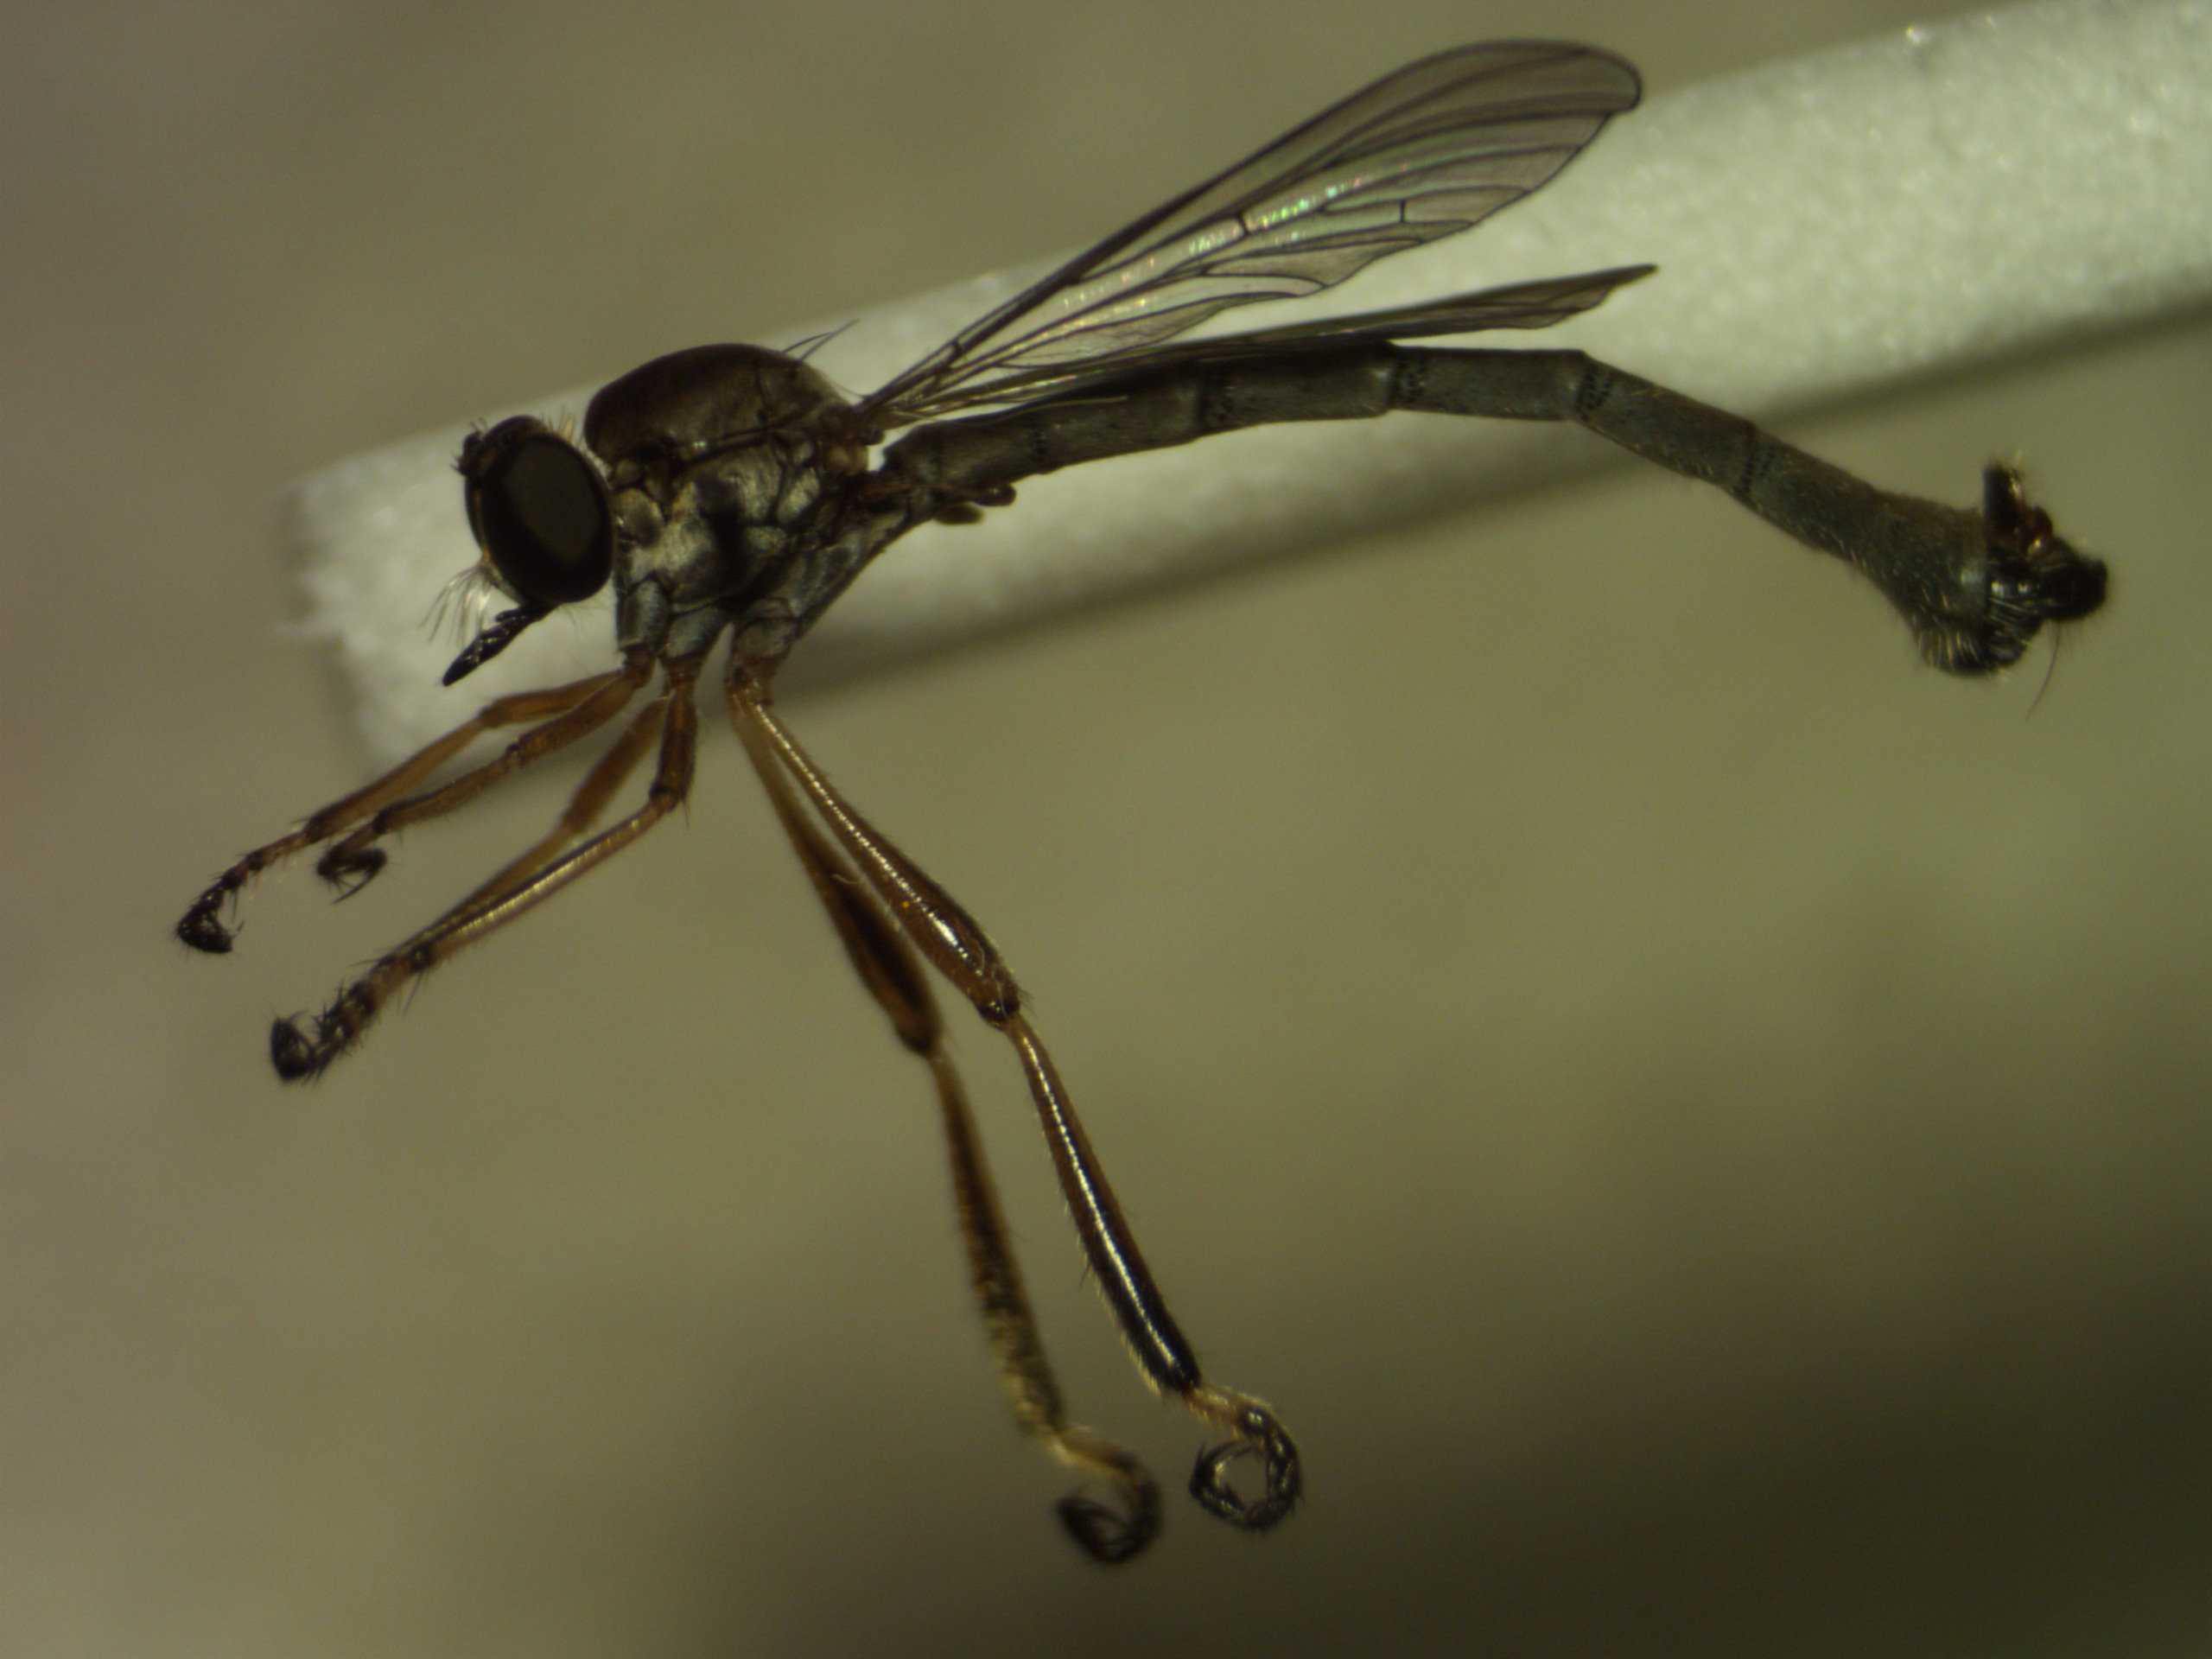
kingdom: Animalia
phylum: Arthropoda
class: Insecta
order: Diptera
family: Asilidae
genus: Leptogaster
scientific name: Leptogaster cylindrica
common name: Lang græsrovflue
